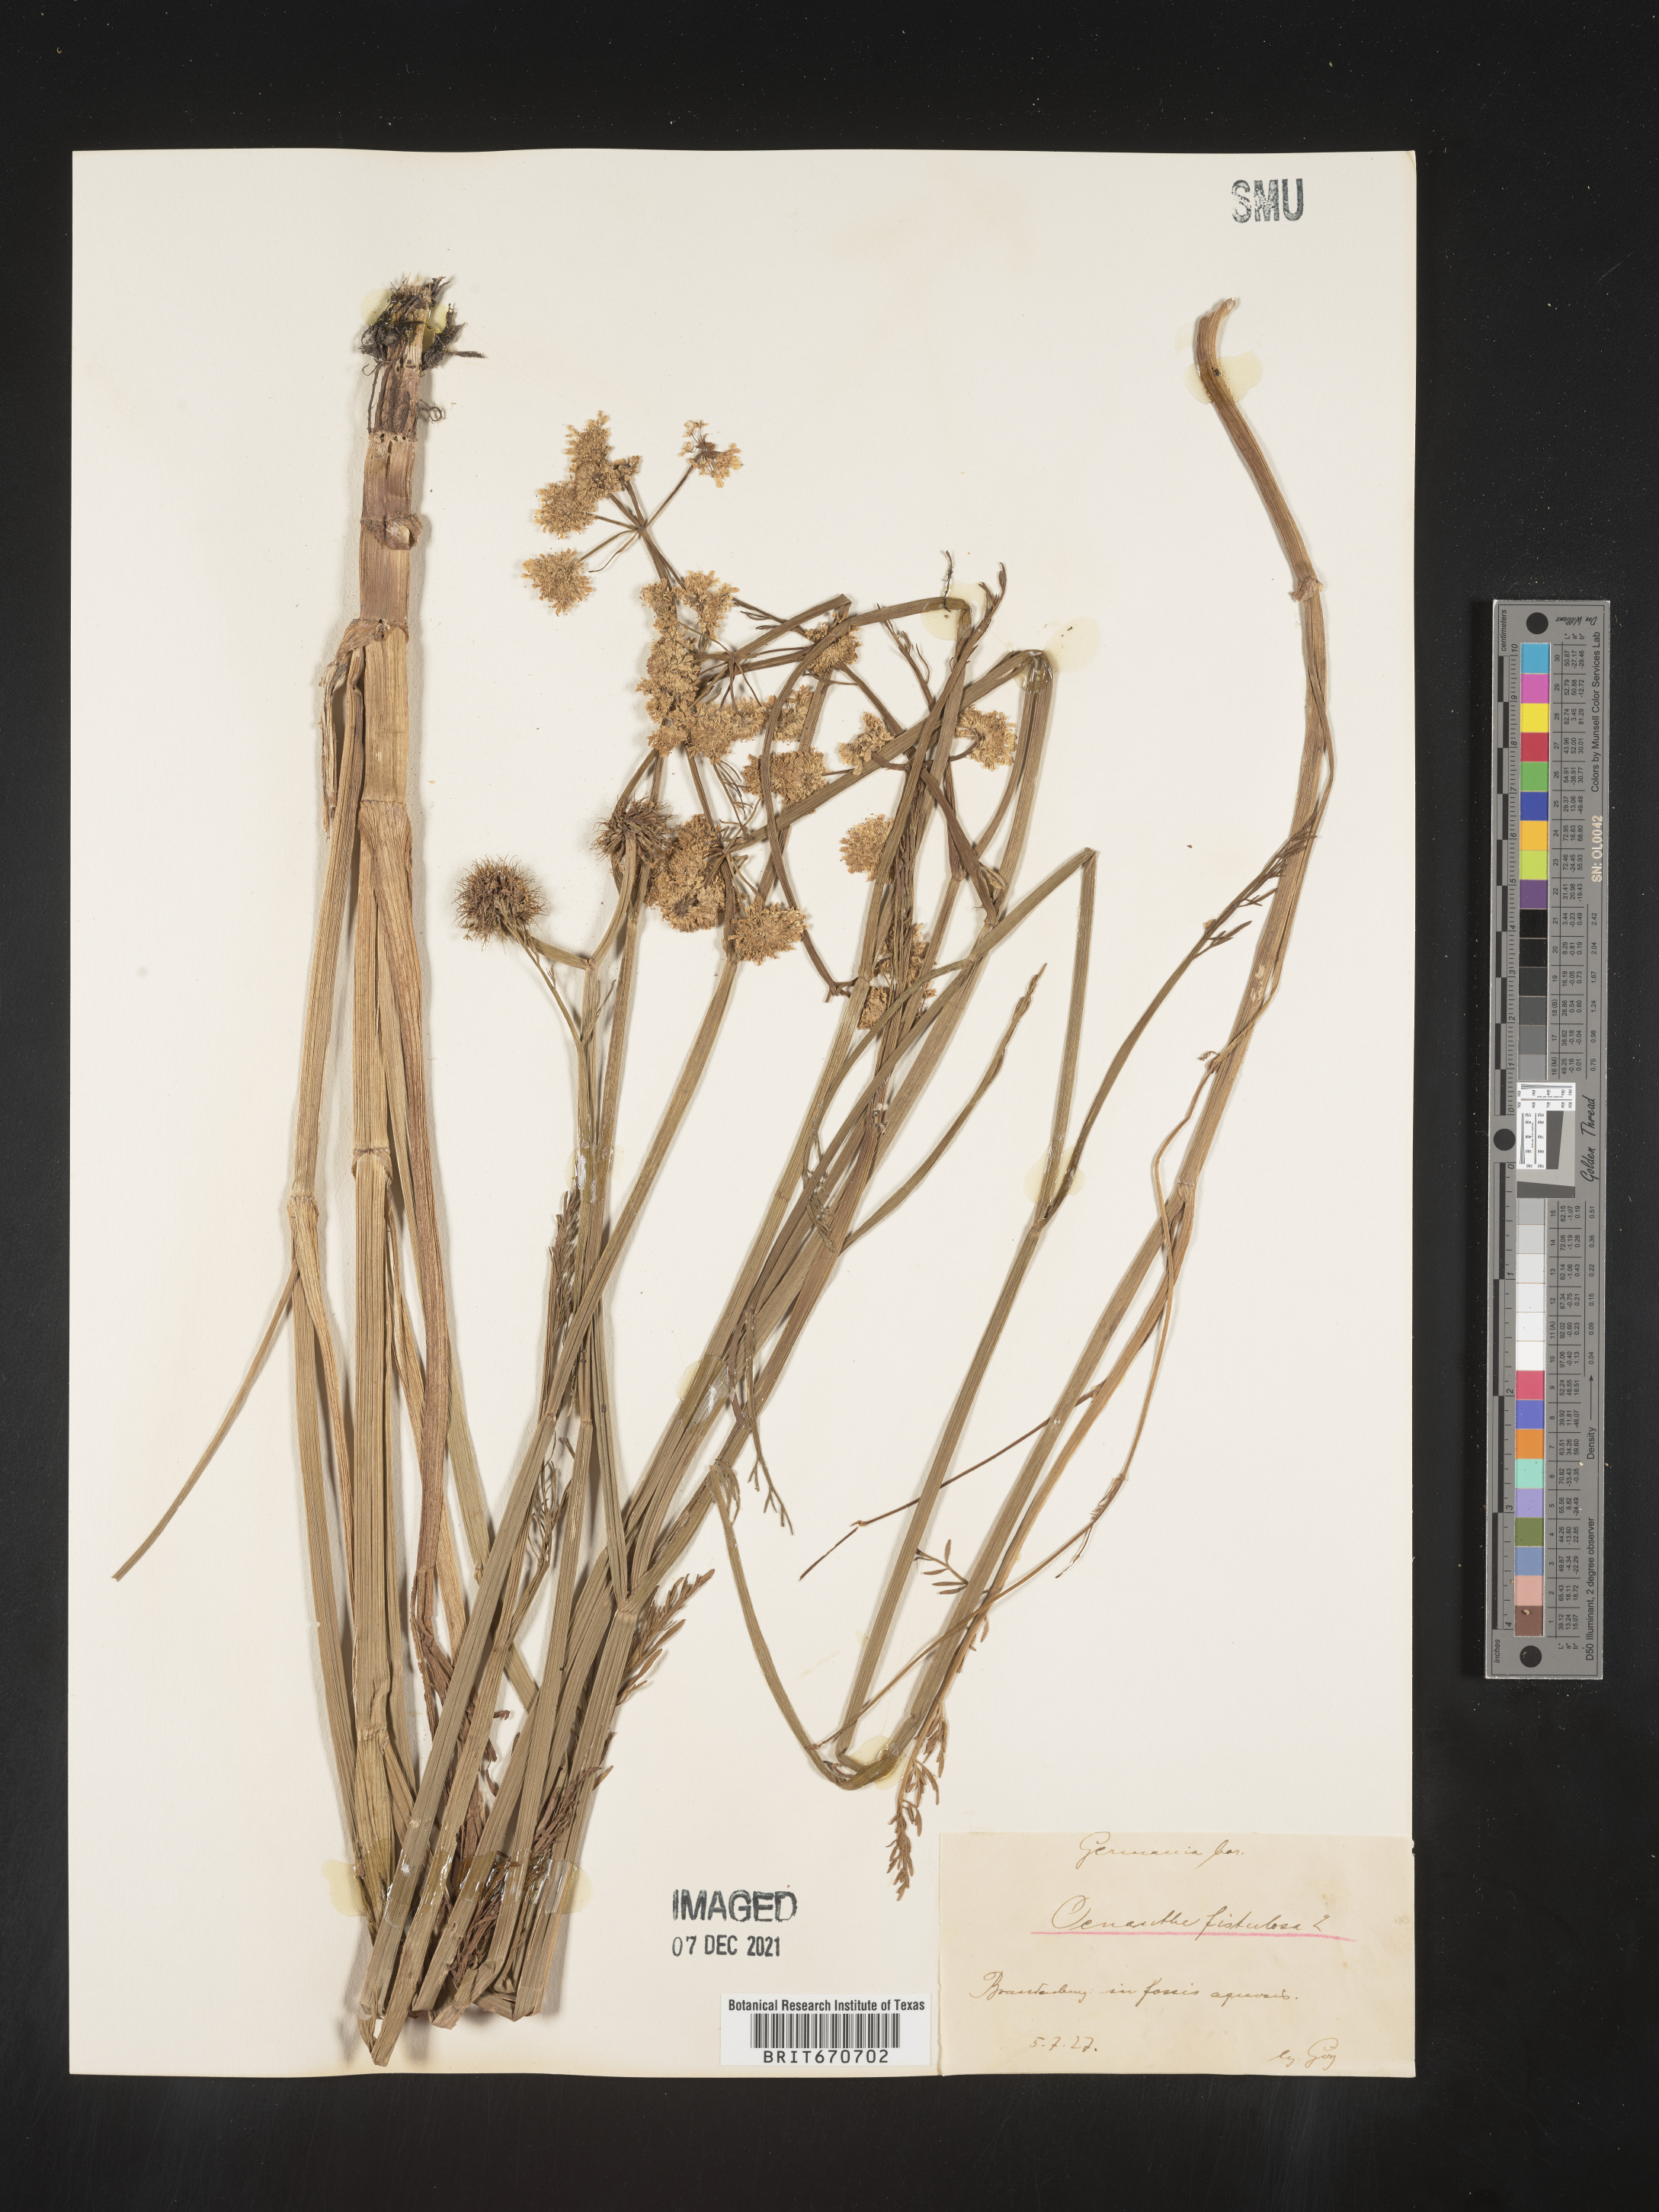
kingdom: Plantae
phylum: Tracheophyta
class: Magnoliopsida
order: Apiales
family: Apiaceae
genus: Oenanthe
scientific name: Oenanthe
